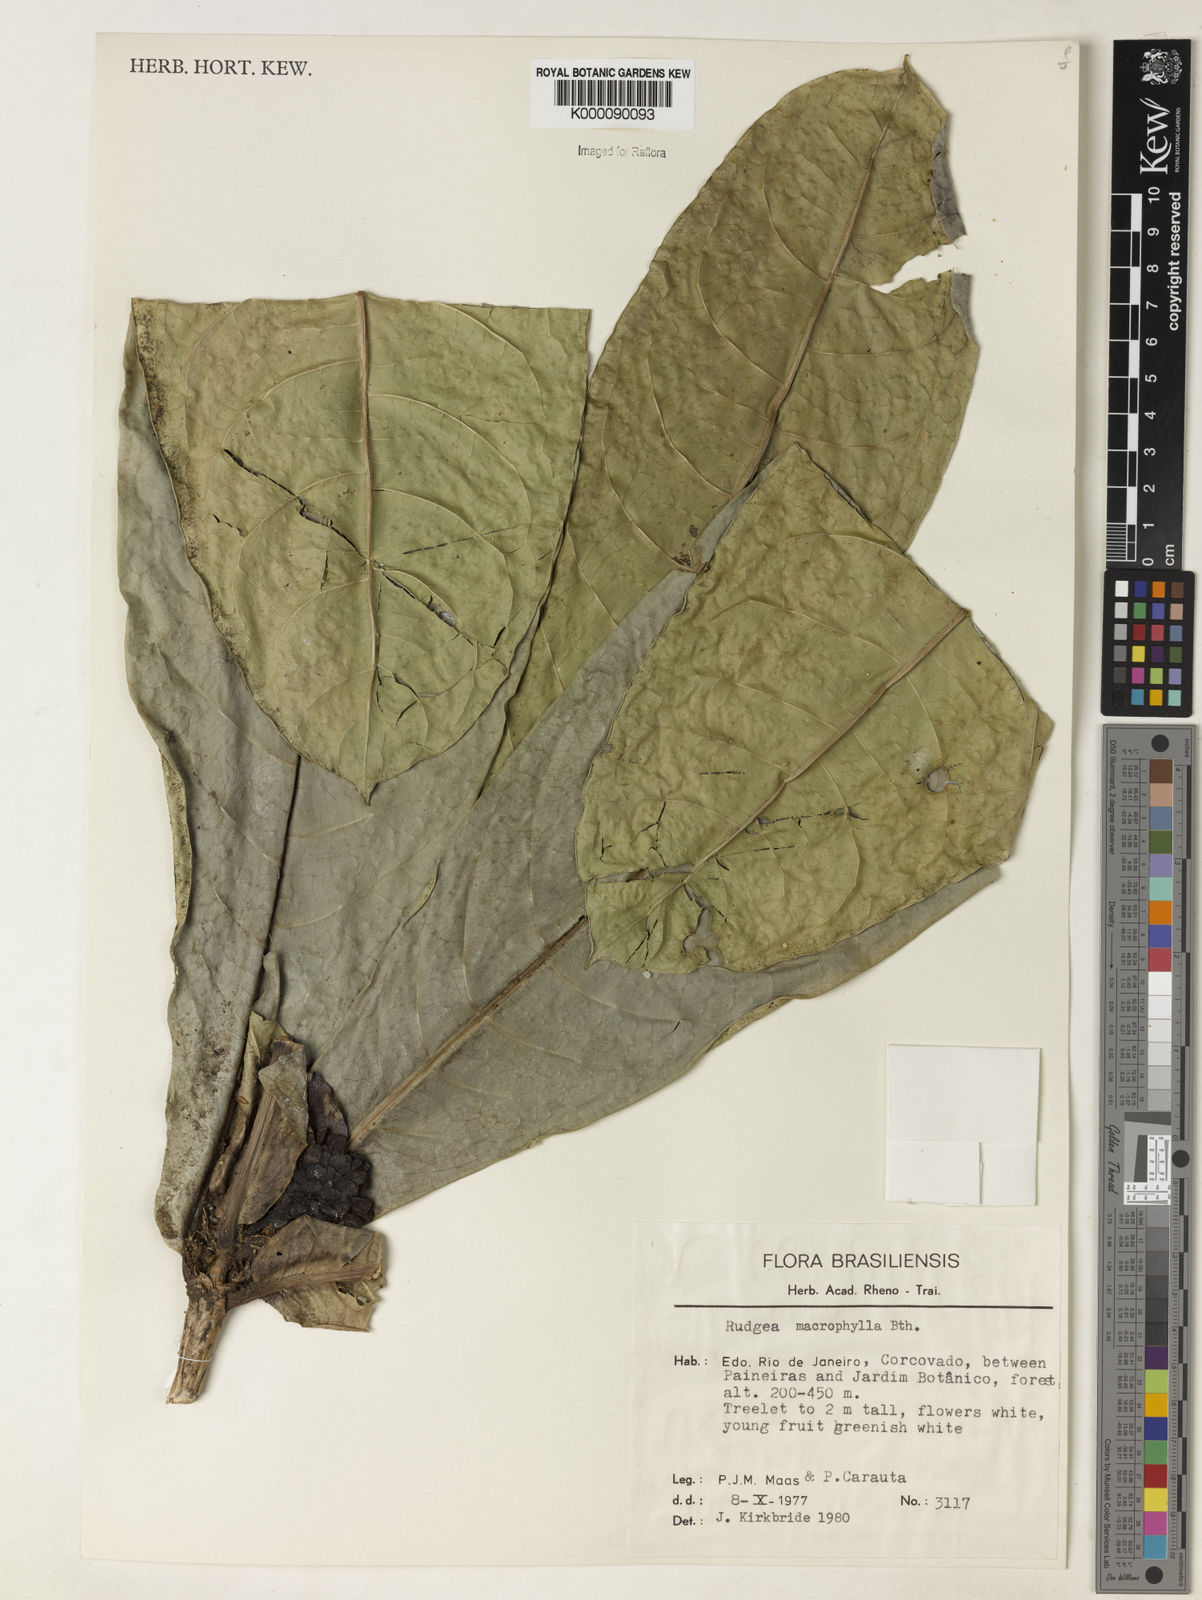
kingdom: Plantae
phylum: Tracheophyta
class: Magnoliopsida
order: Gentianales
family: Rubiaceae
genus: Rudgea
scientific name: Rudgea macrophylla
